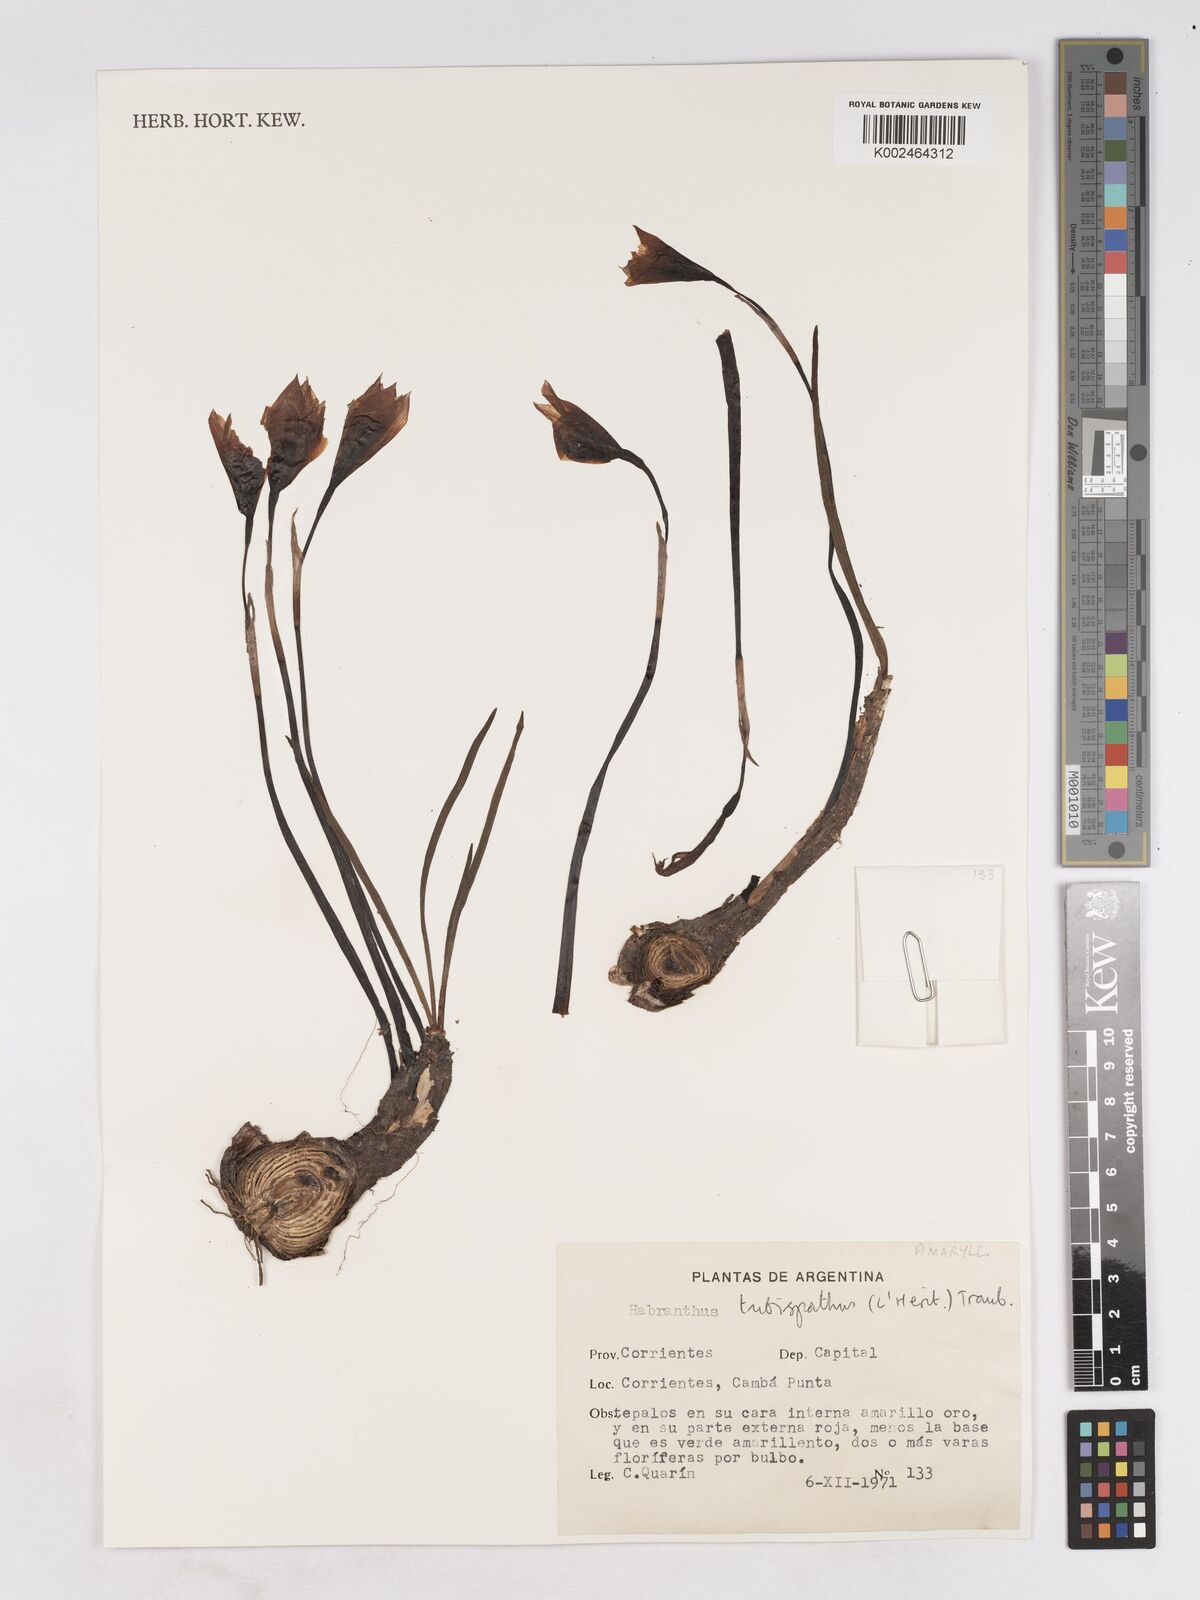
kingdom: Plantae
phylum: Tracheophyta
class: Liliopsida
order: Asparagales
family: Amaryllidaceae
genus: Zephyranthes
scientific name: Zephyranthes tubispatha
